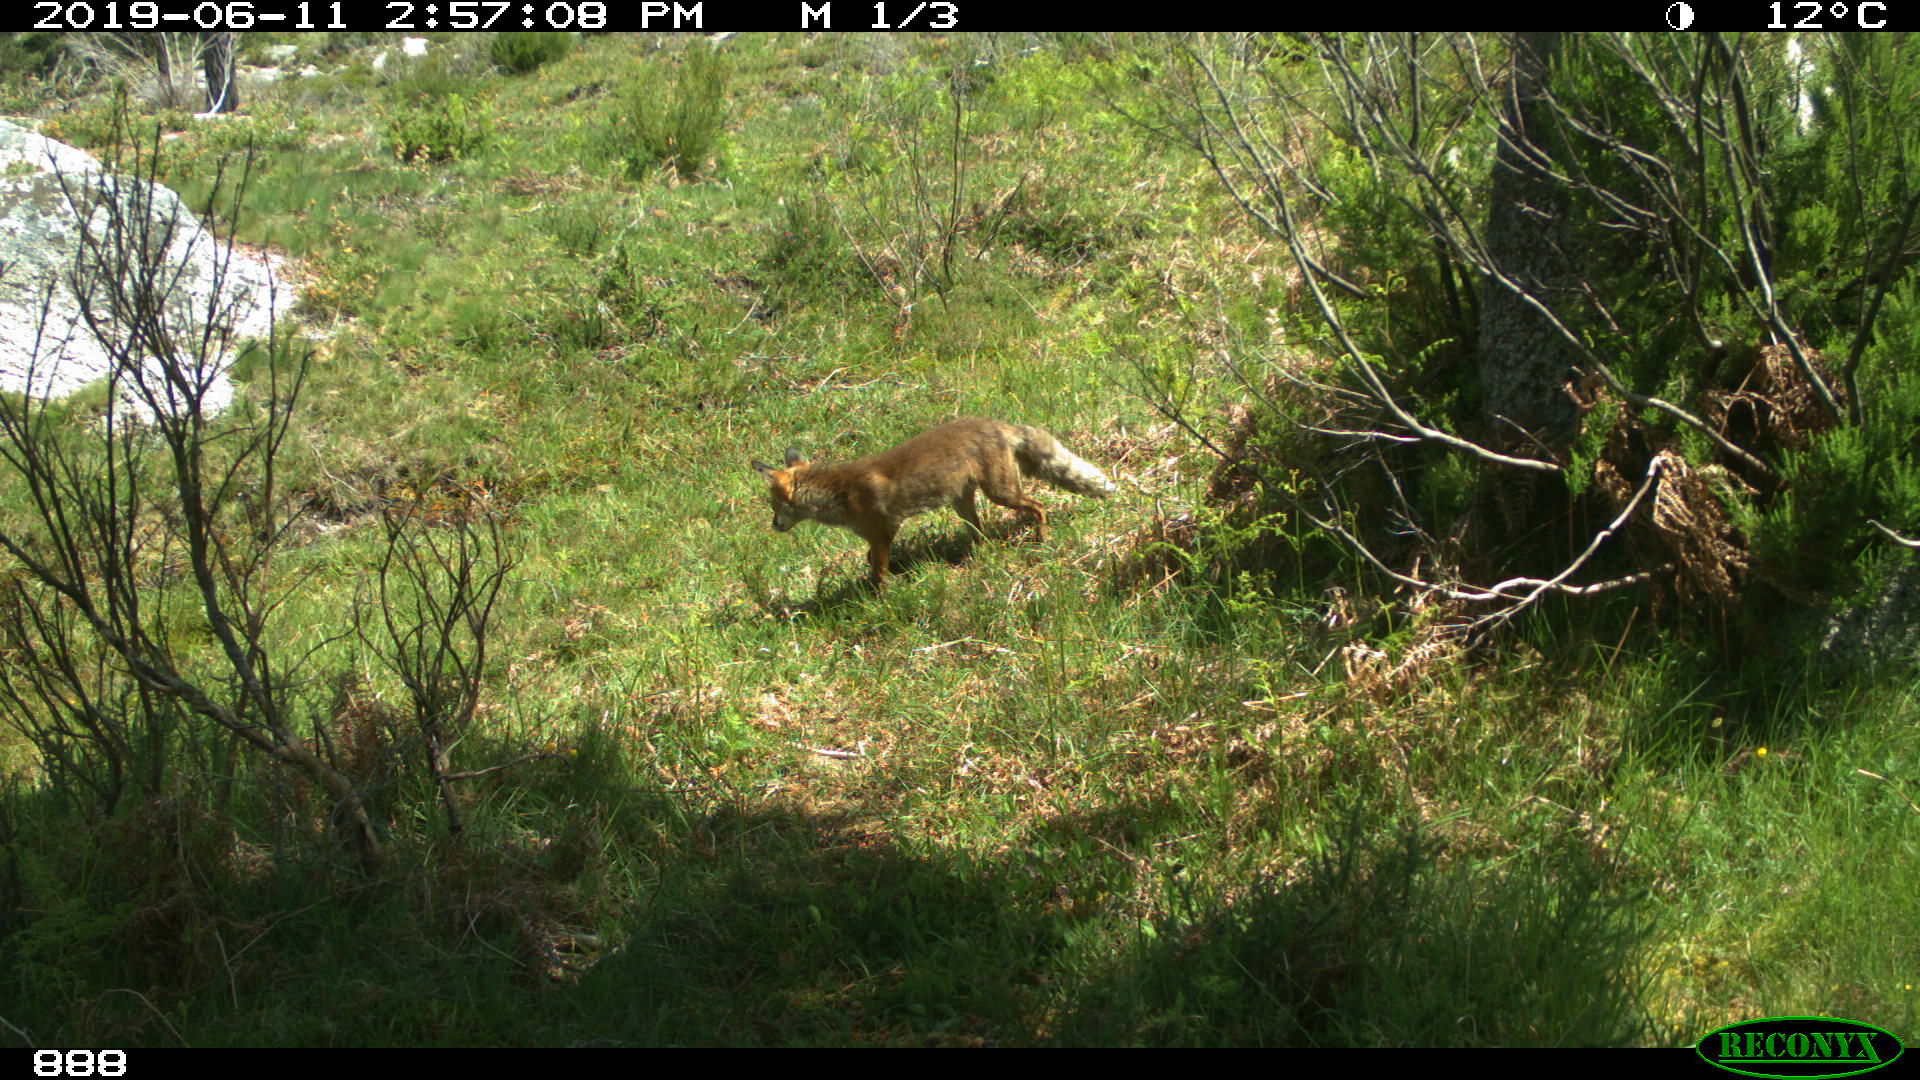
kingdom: Animalia
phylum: Chordata
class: Mammalia
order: Carnivora
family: Canidae
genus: Vulpes
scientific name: Vulpes vulpes
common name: Red fox
